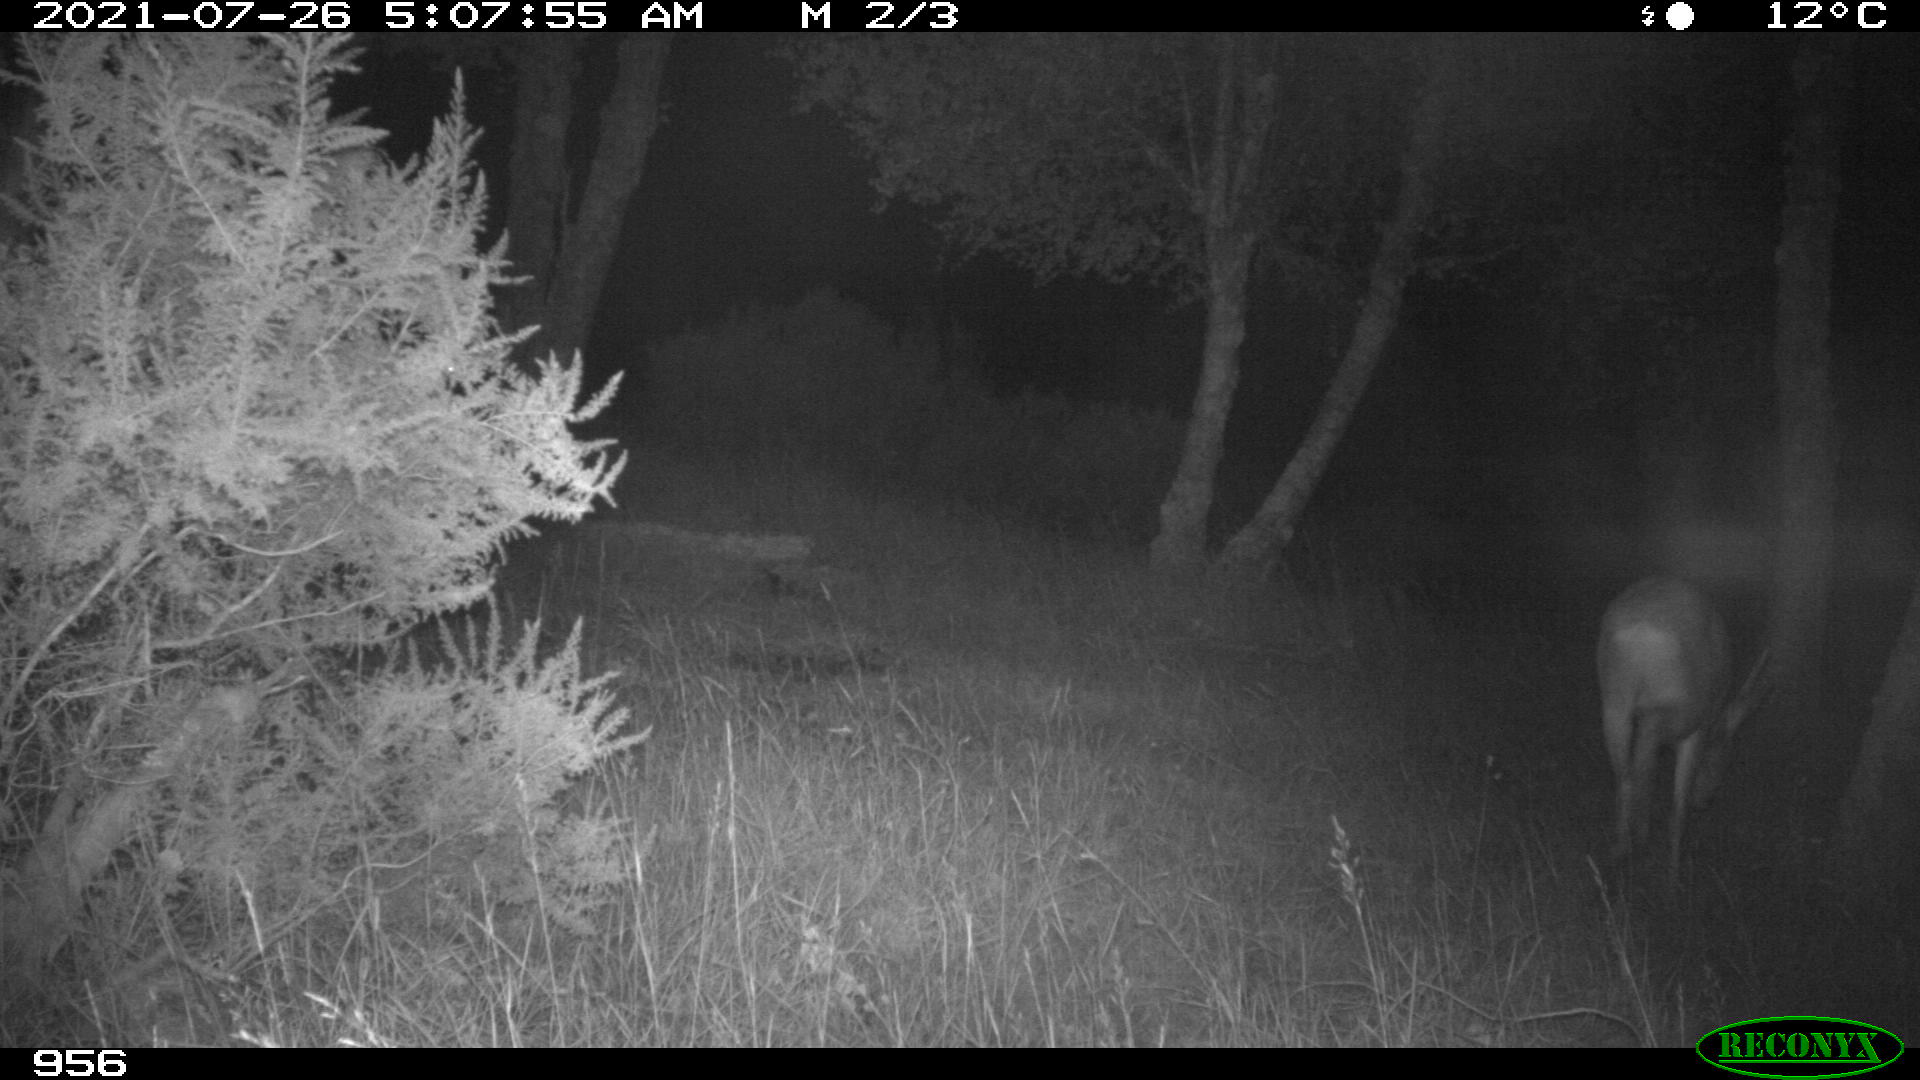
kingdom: Animalia
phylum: Chordata
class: Mammalia
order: Artiodactyla
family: Cervidae
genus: Capreolus
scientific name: Capreolus capreolus
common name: Western roe deer
